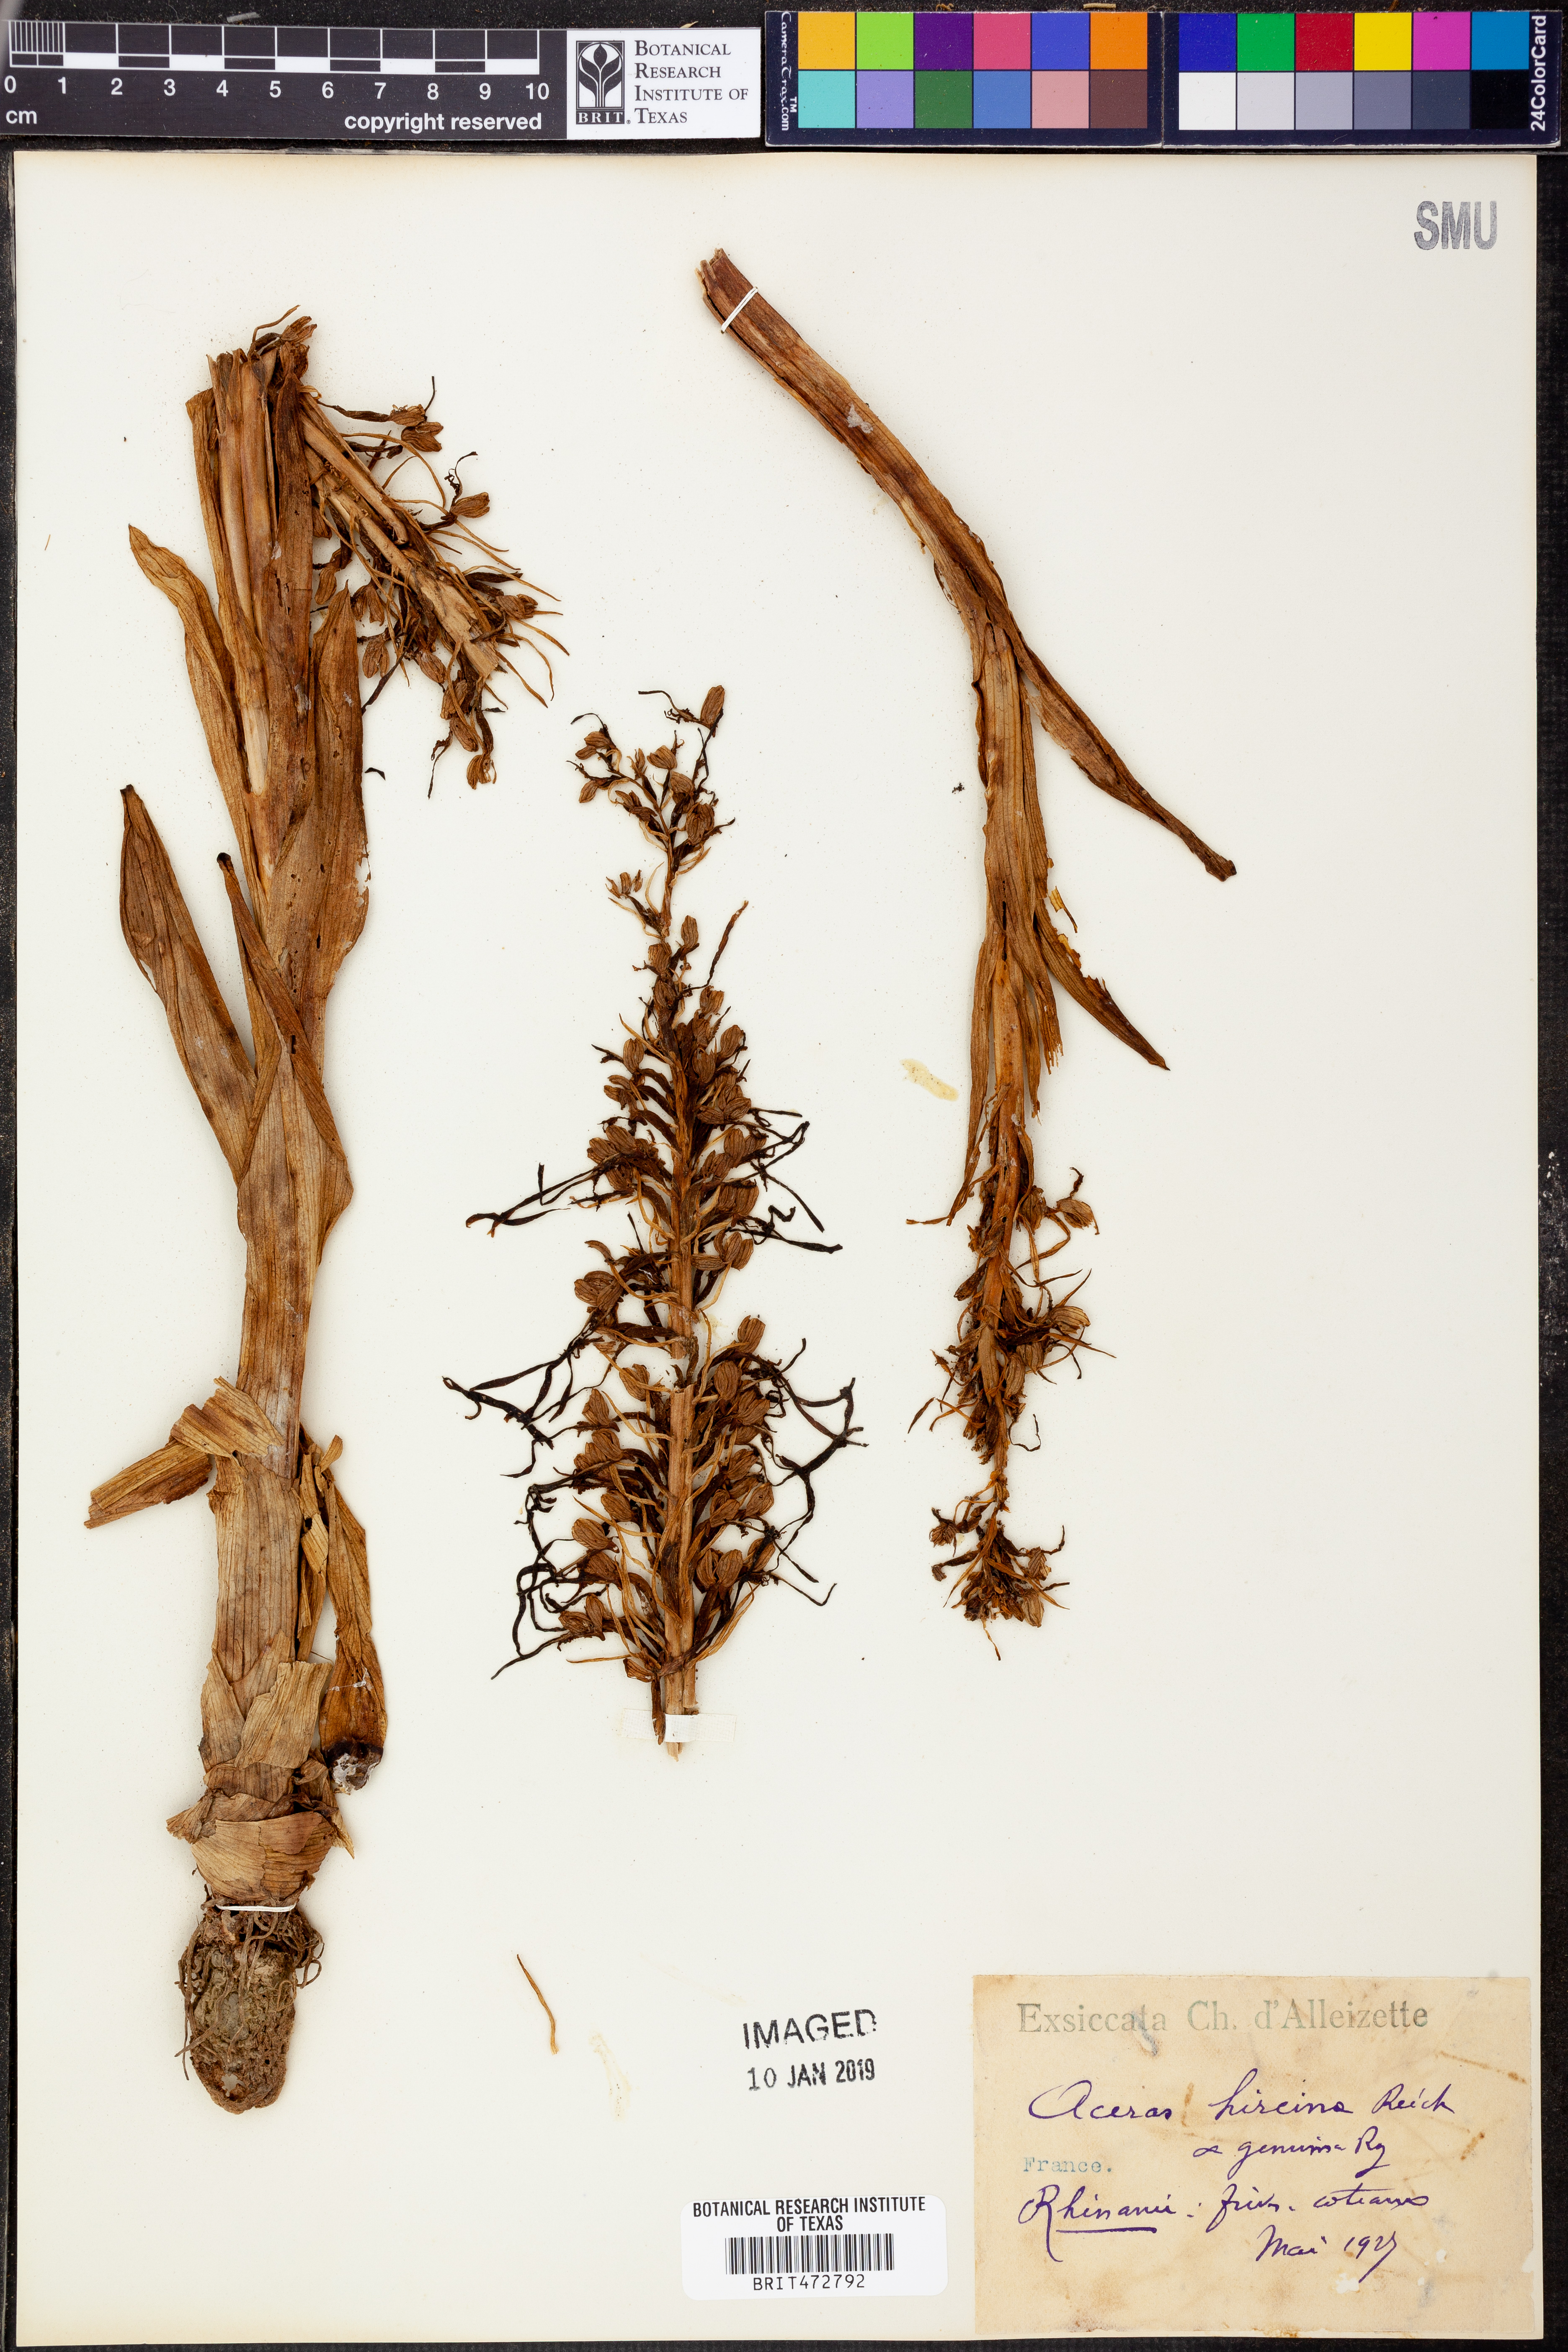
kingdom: Plantae
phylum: Tracheophyta
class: Liliopsida
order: Asparagales
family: Orchidaceae
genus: Himantoglossum
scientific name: Himantoglossum hircinum
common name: Lizard orchid
